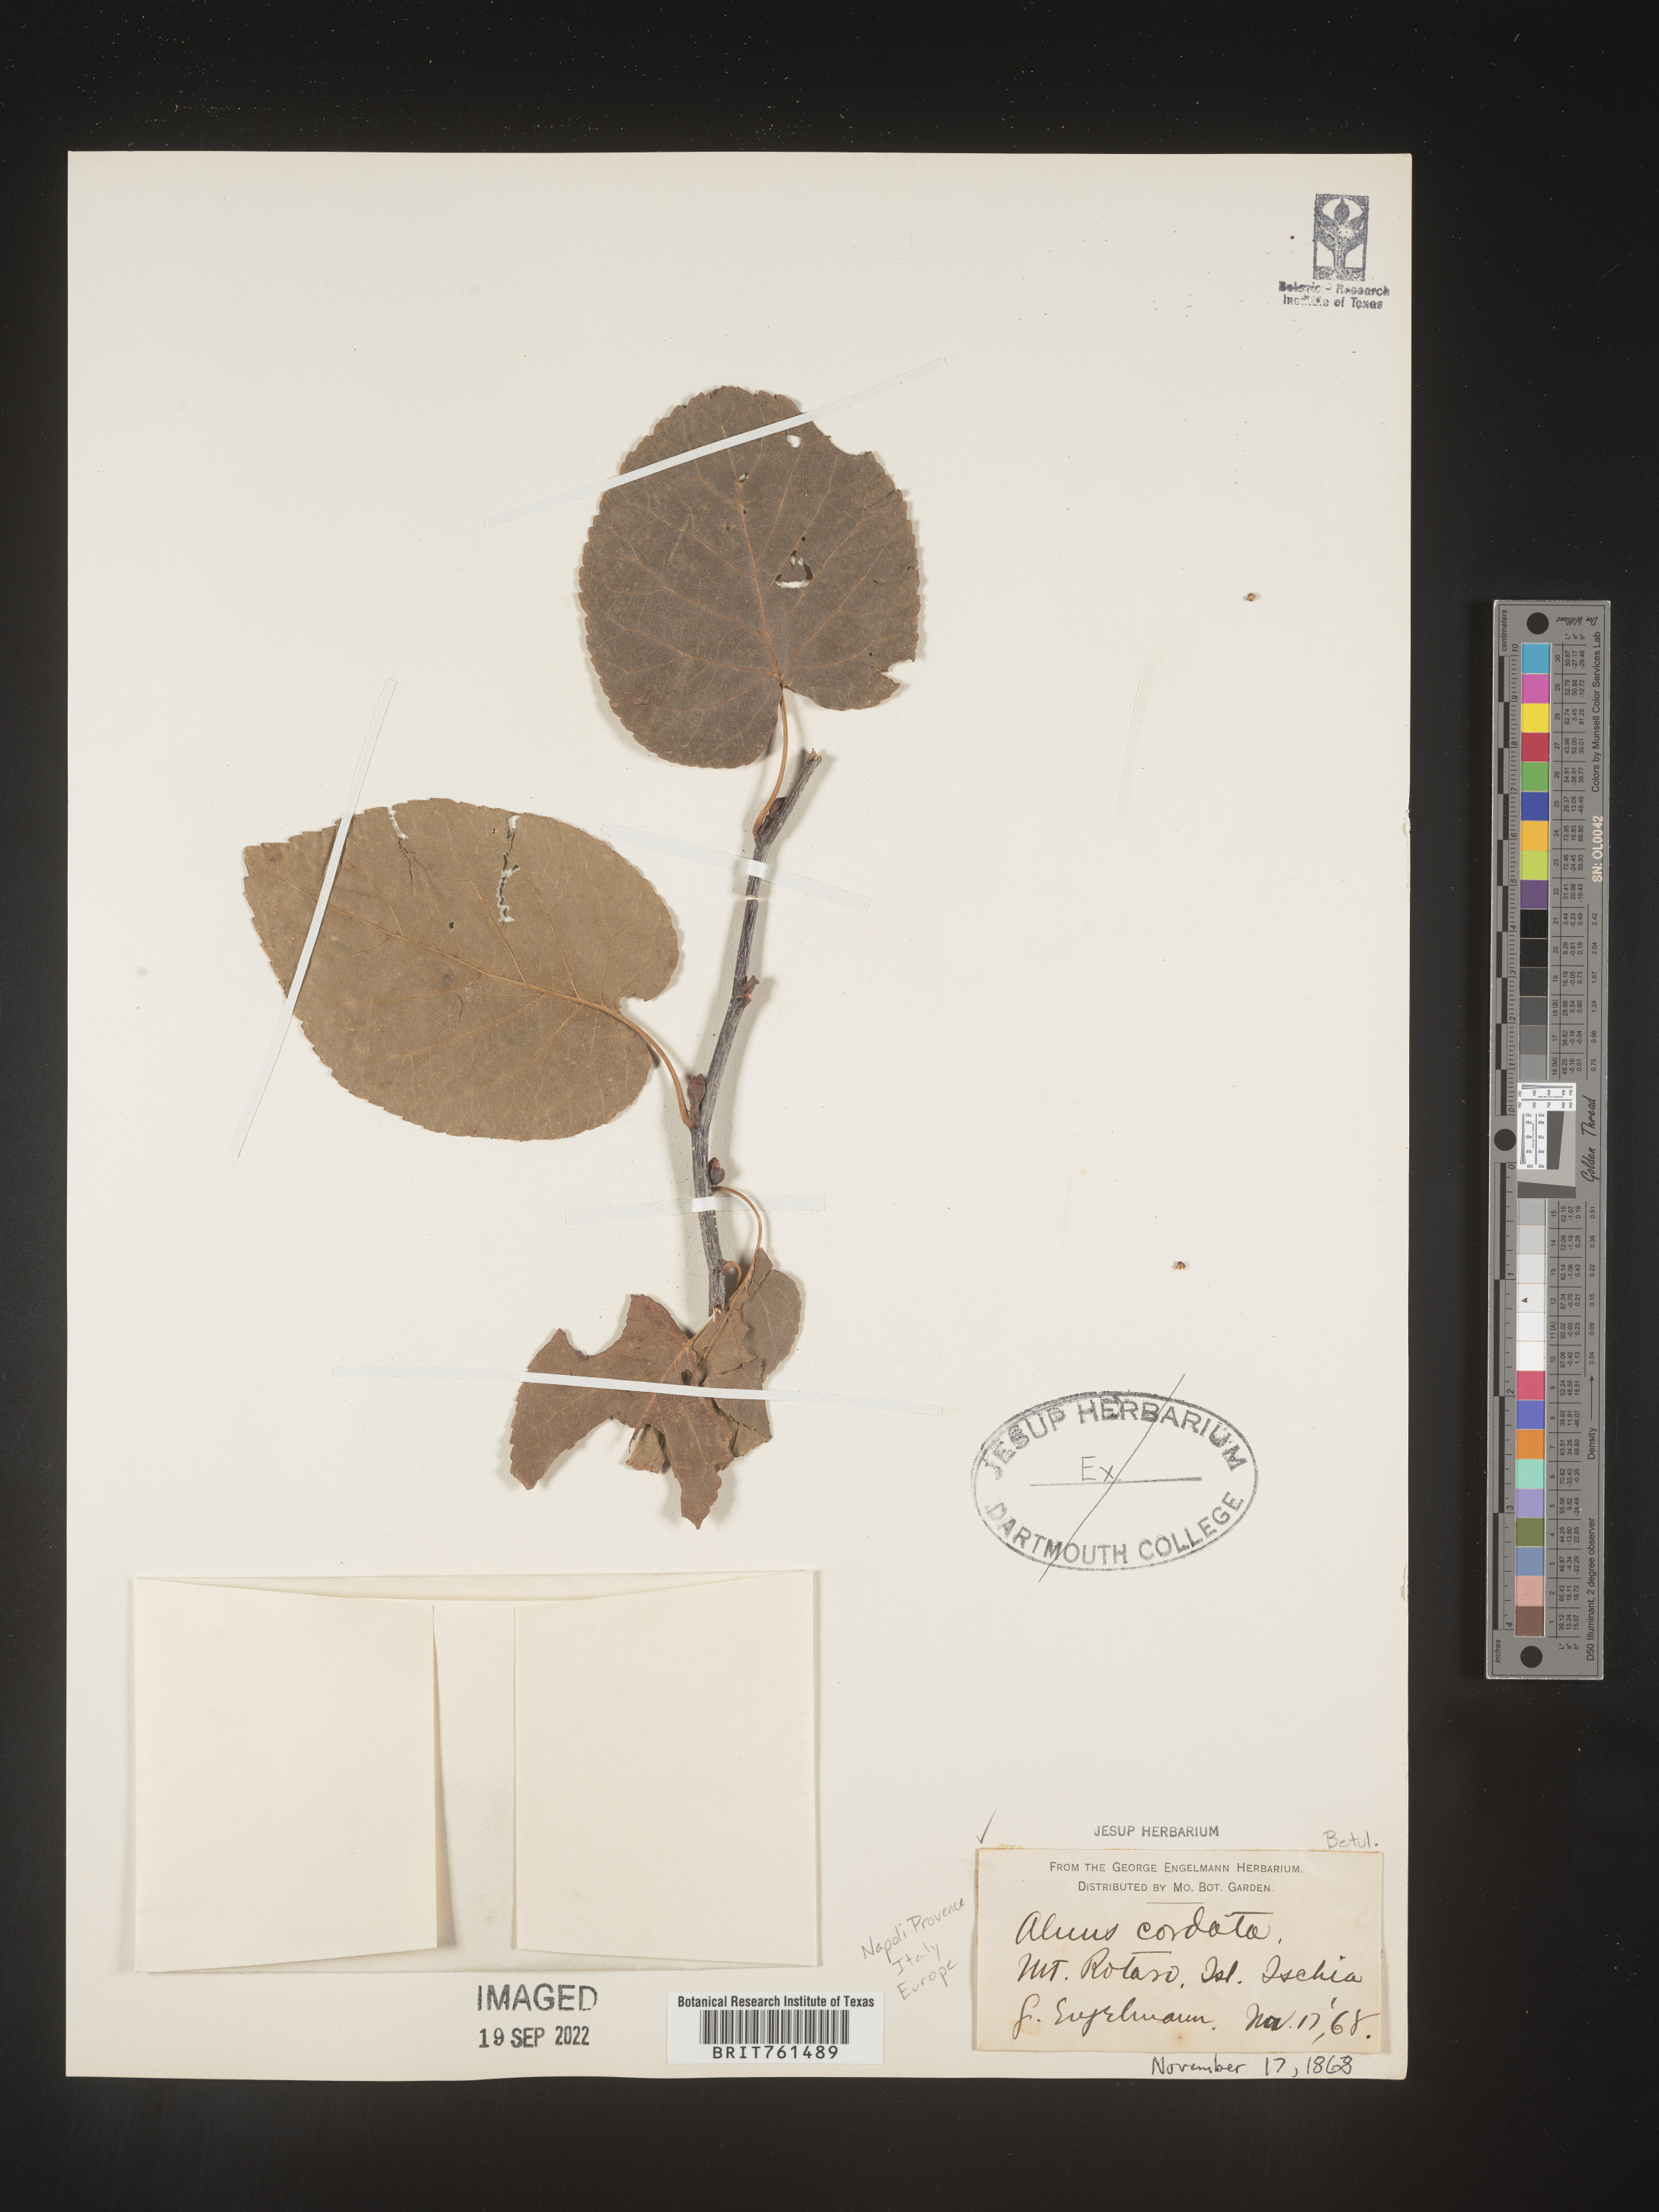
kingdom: Plantae
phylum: Tracheophyta
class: Magnoliopsida
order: Fagales
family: Betulaceae
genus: Alnus
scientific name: Alnus
